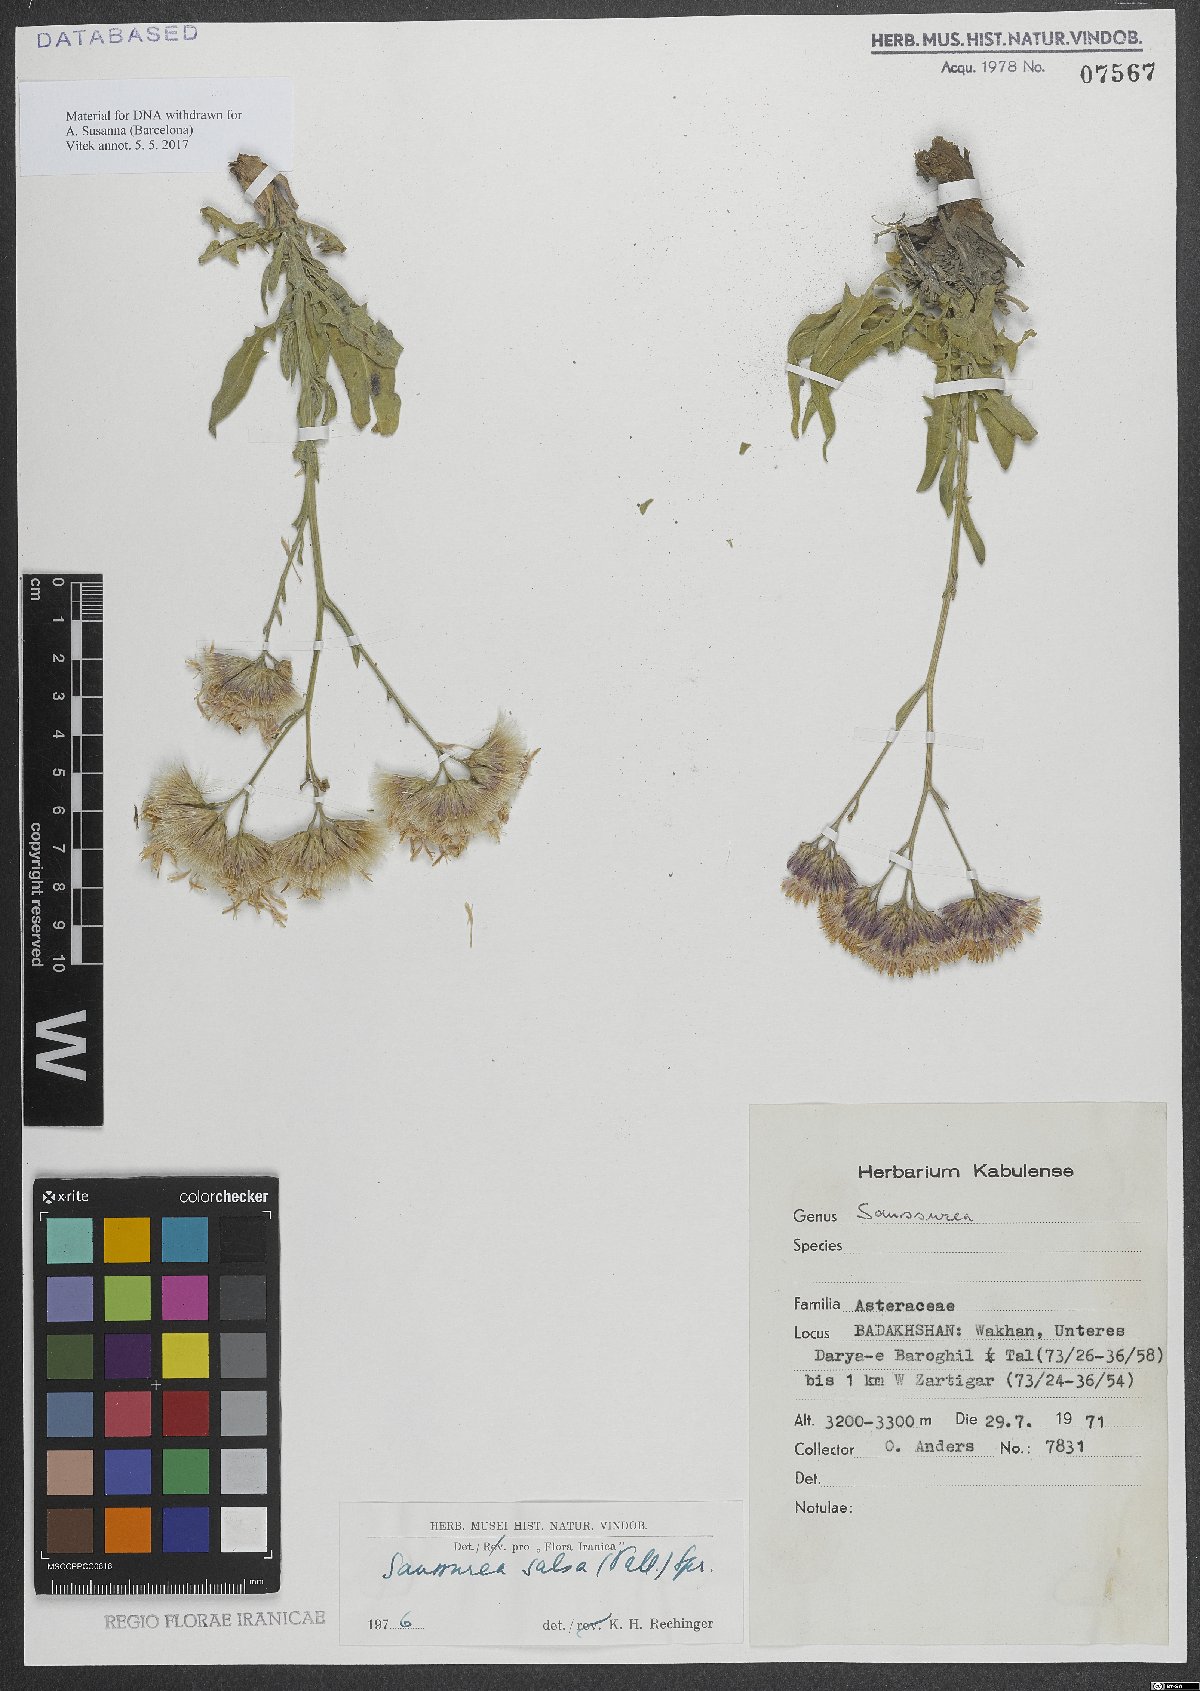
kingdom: Plantae
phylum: Tracheophyta
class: Magnoliopsida
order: Asterales
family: Asteraceae
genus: Saussurea
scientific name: Saussurea salsa
